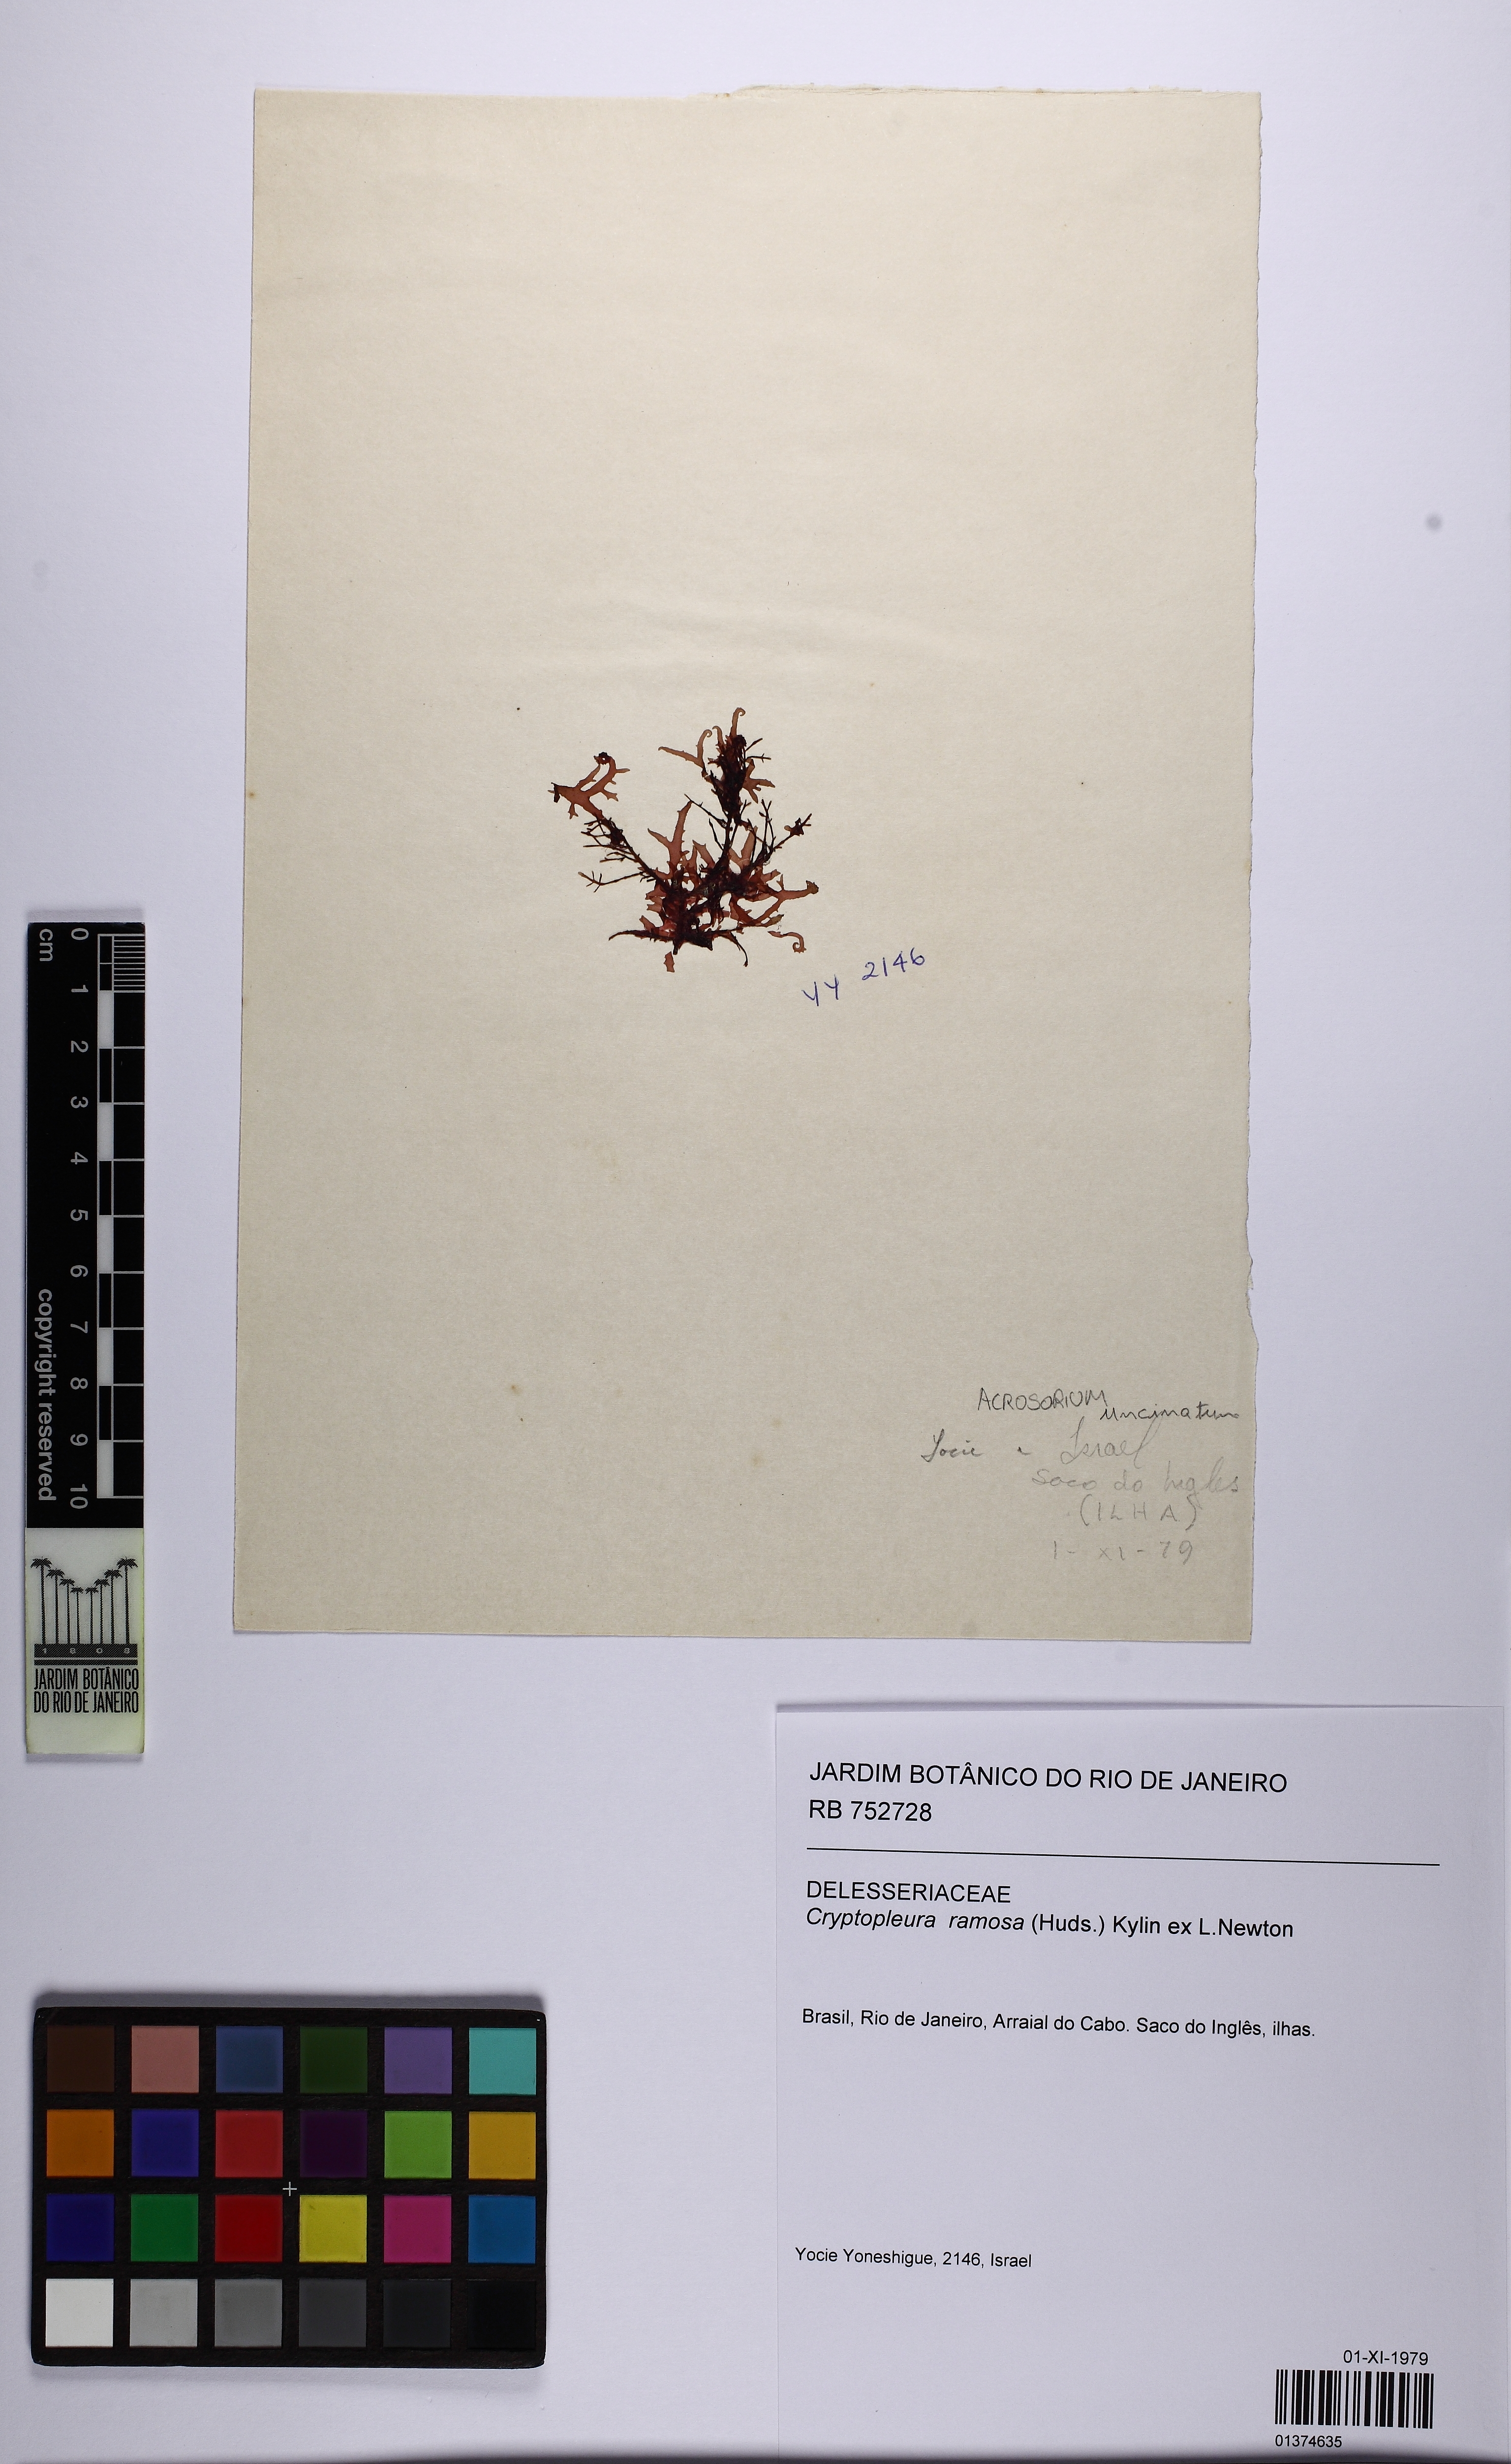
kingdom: Plantae
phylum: Rhodophyta
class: Florideophyceae
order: Ceramiales
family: Delesseriaceae
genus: Cryptopleura
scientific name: Cryptopleura ramosa
